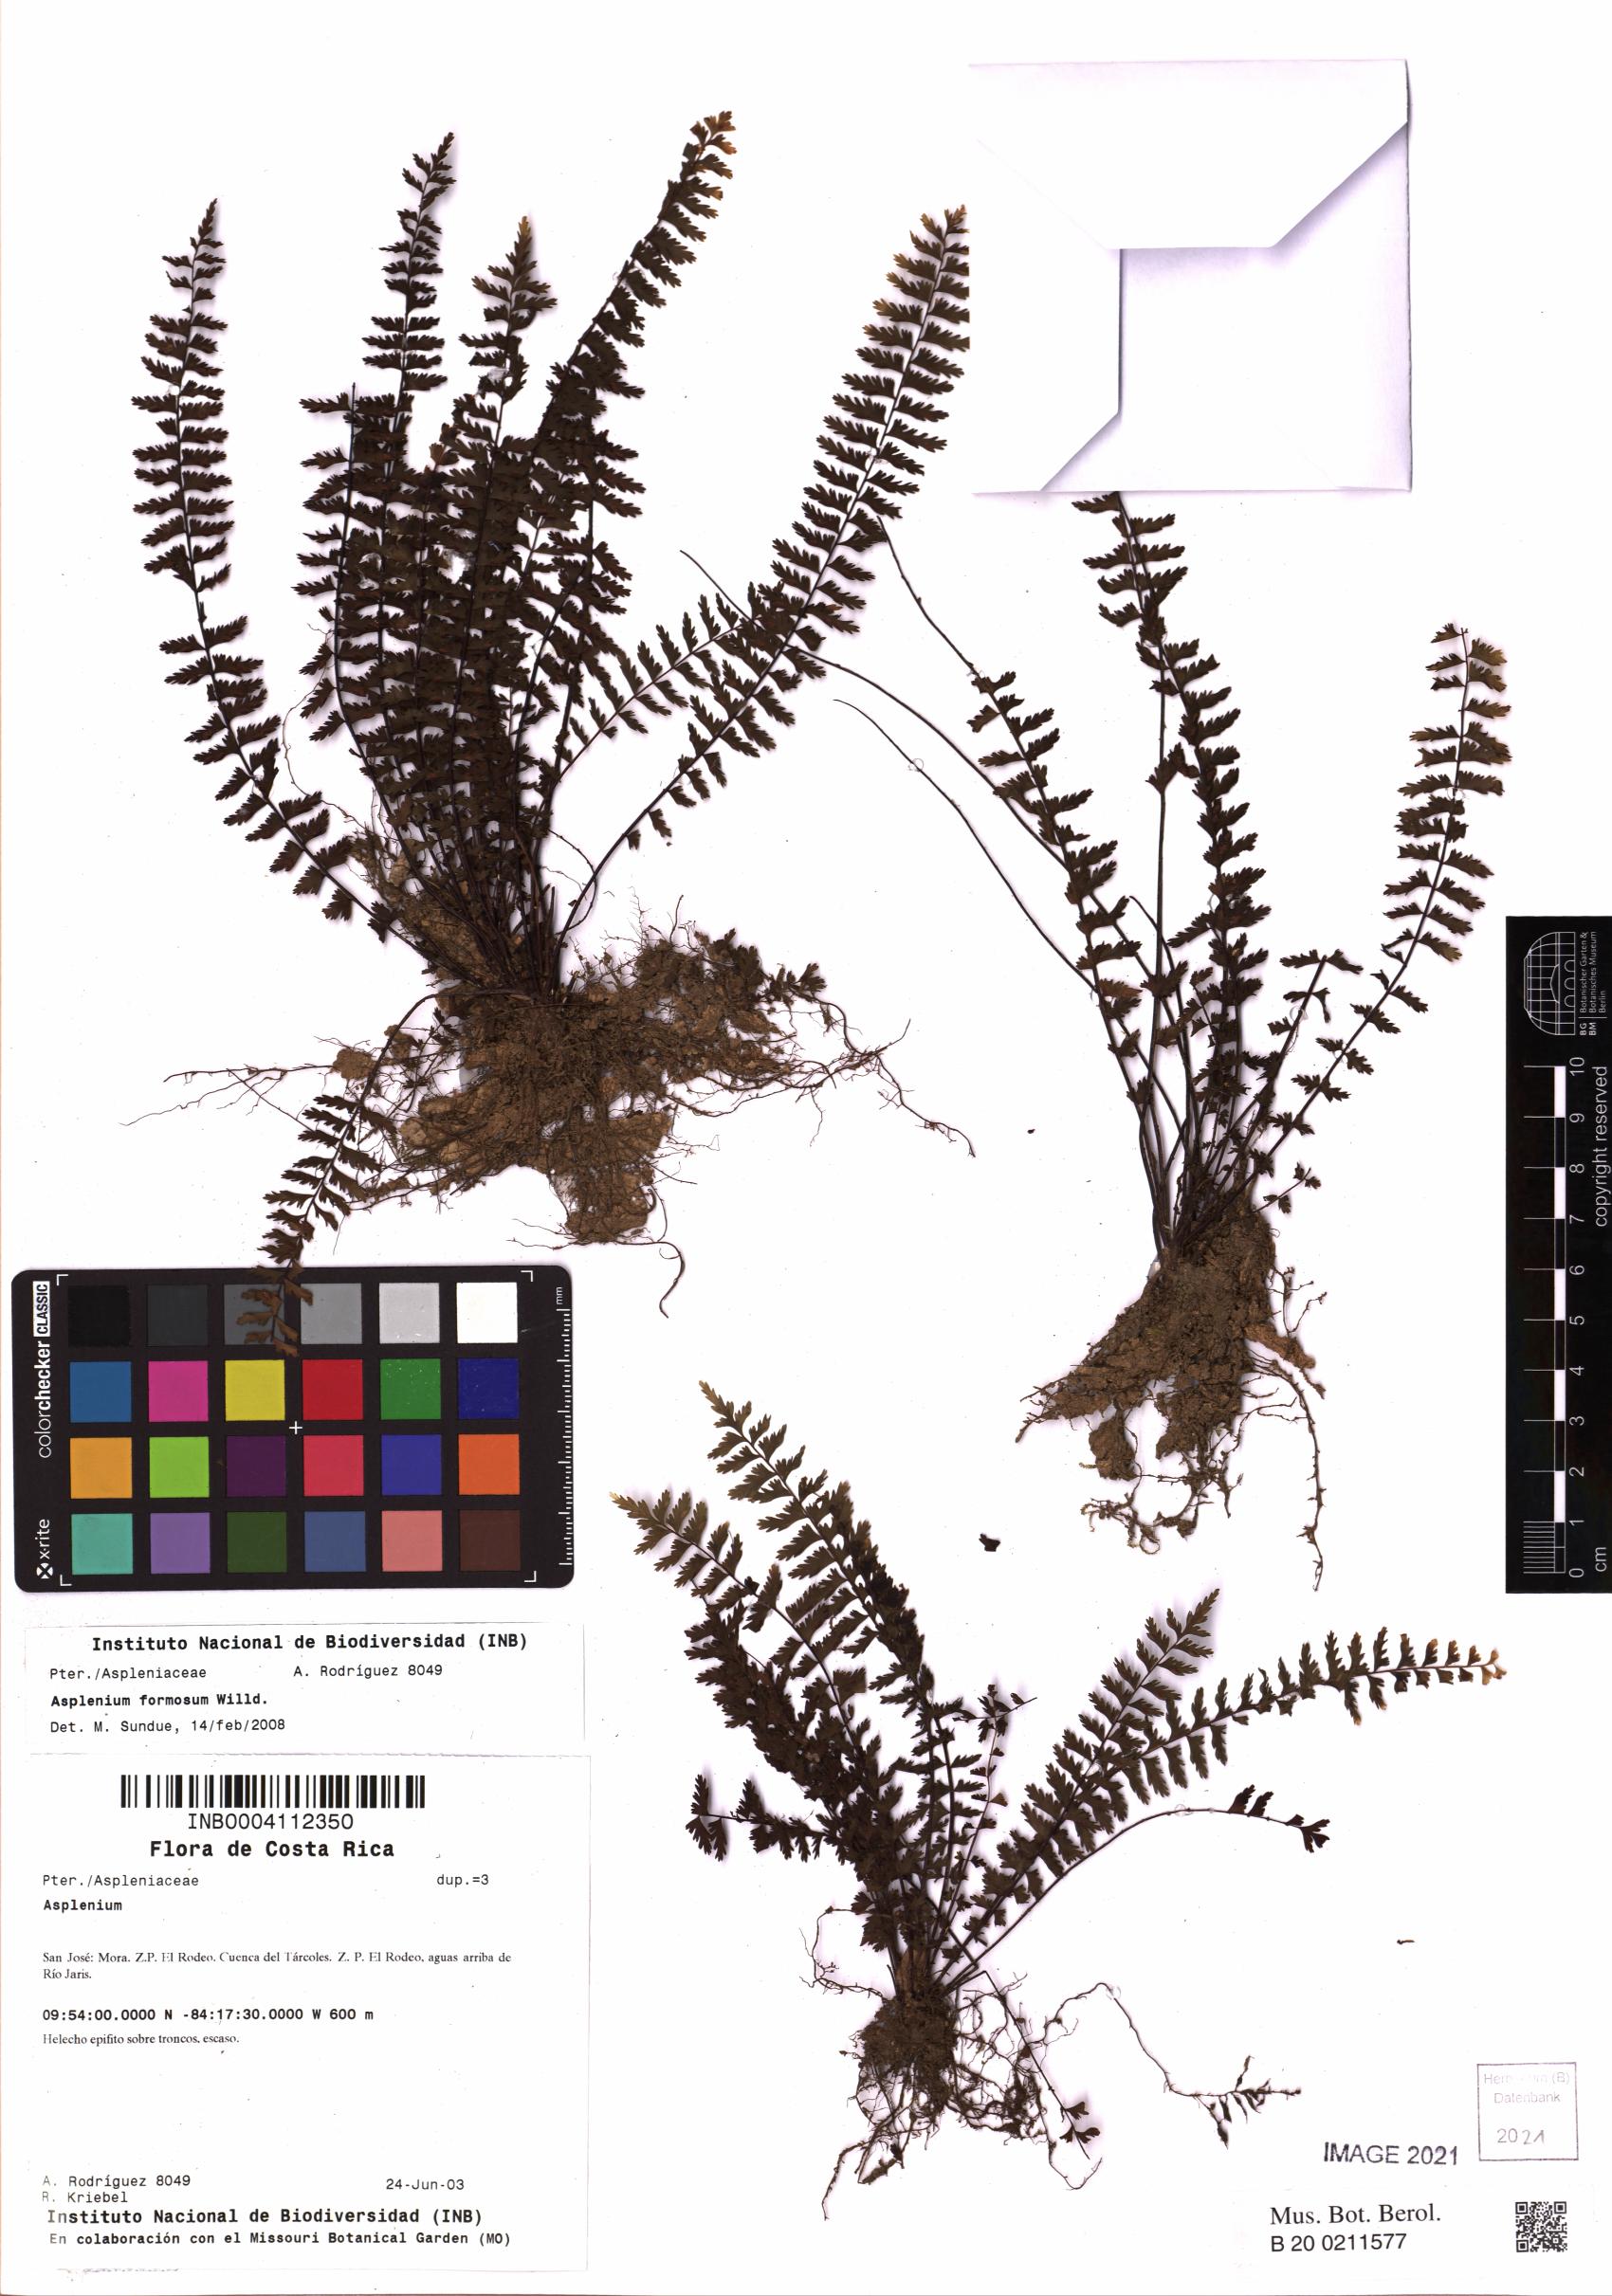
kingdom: Plantae
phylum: Tracheophyta
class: Polypodiopsida
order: Polypodiales
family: Aspleniaceae
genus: Asplenium
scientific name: Asplenium formosum
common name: Showy spleenwort
